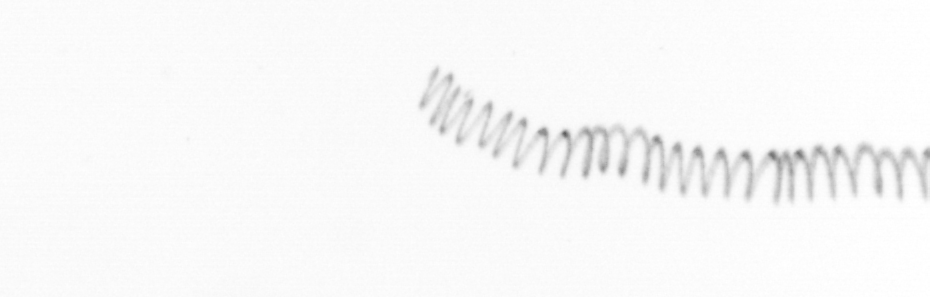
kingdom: Chromista
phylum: Ochrophyta
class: Bacillariophyceae
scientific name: Bacillariophyceae
